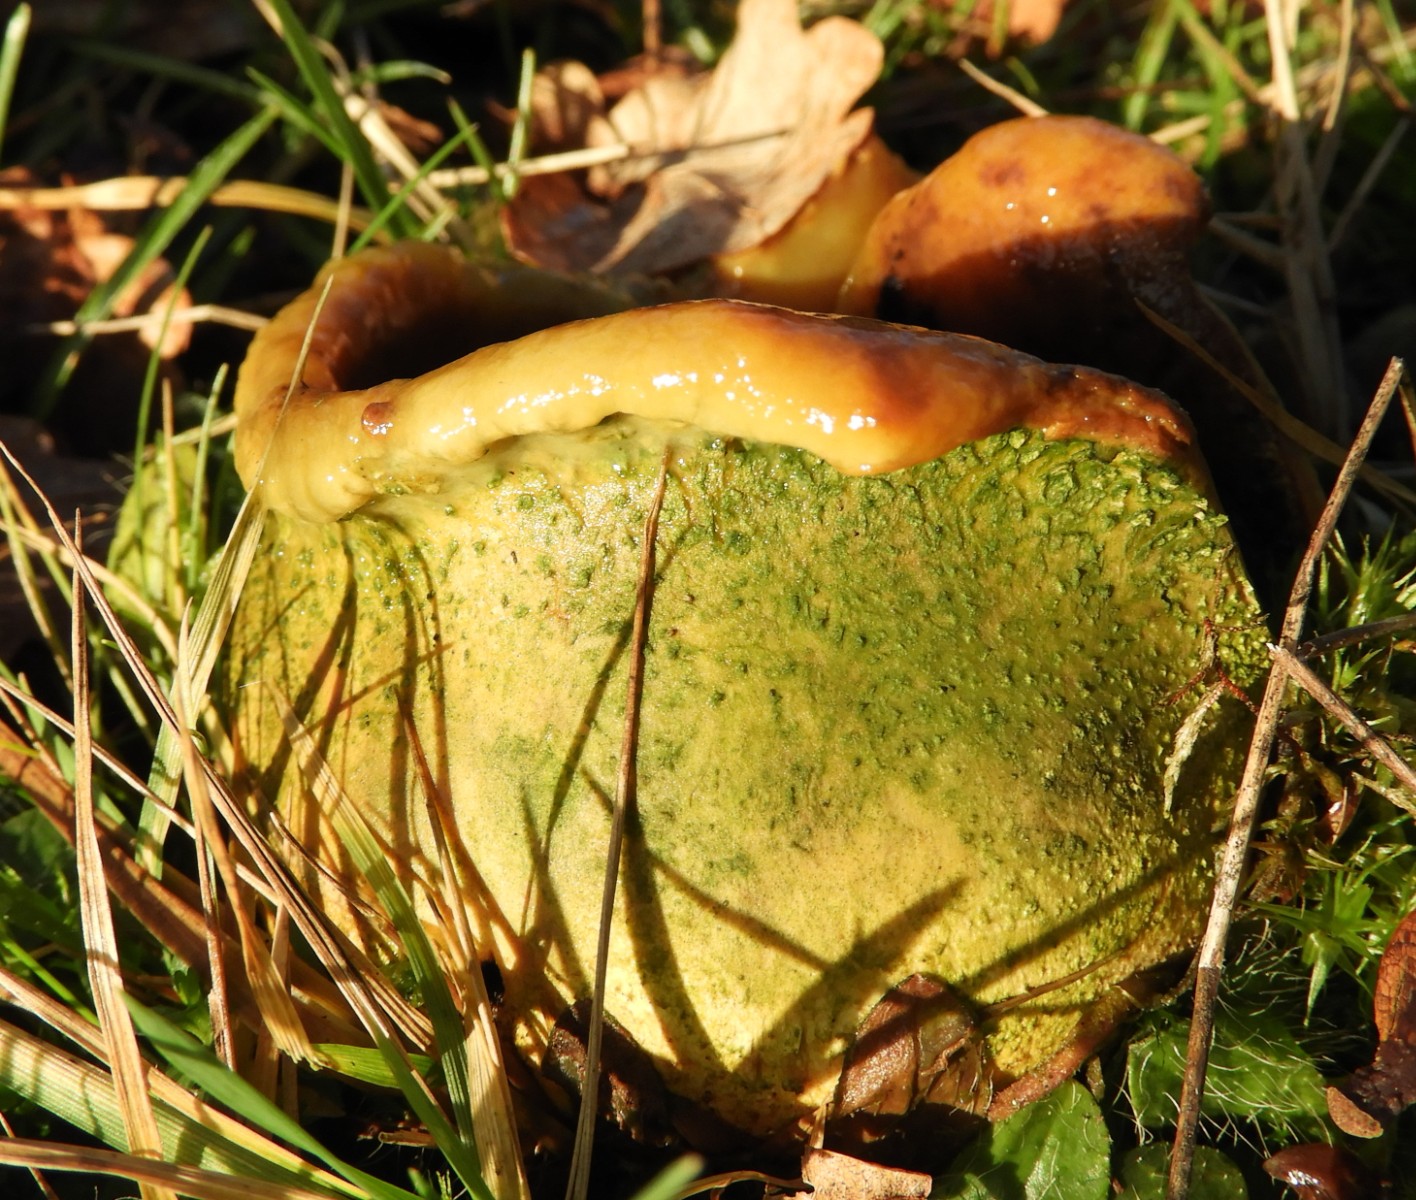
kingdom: Fungi
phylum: Basidiomycota
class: Agaricomycetes
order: Boletales
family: Sclerodermataceae
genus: Scleroderma
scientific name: Scleroderma citrinum
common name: almindelig bruskbold
